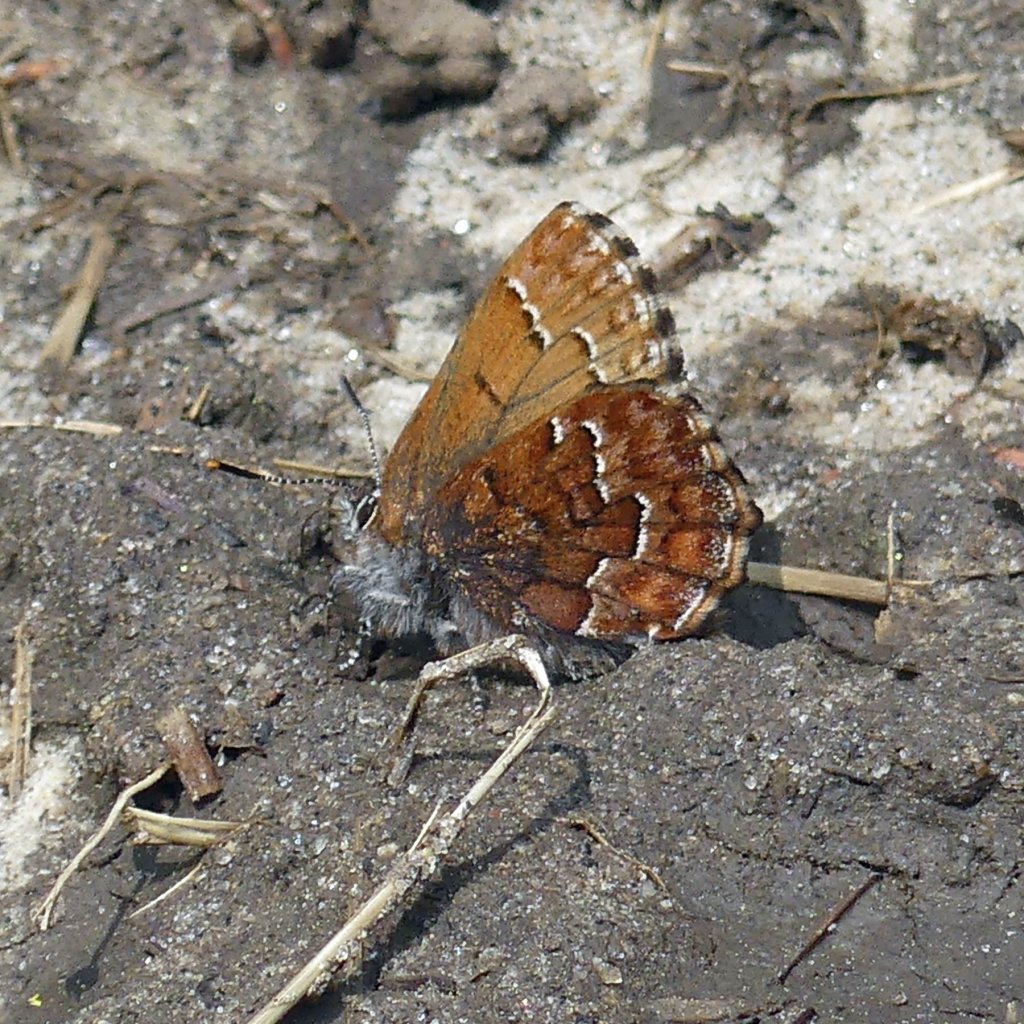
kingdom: Animalia
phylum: Arthropoda
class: Insecta
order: Lepidoptera
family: Lycaenidae
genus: Incisalia
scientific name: Incisalia niphon
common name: Eastern Pine Elfin
